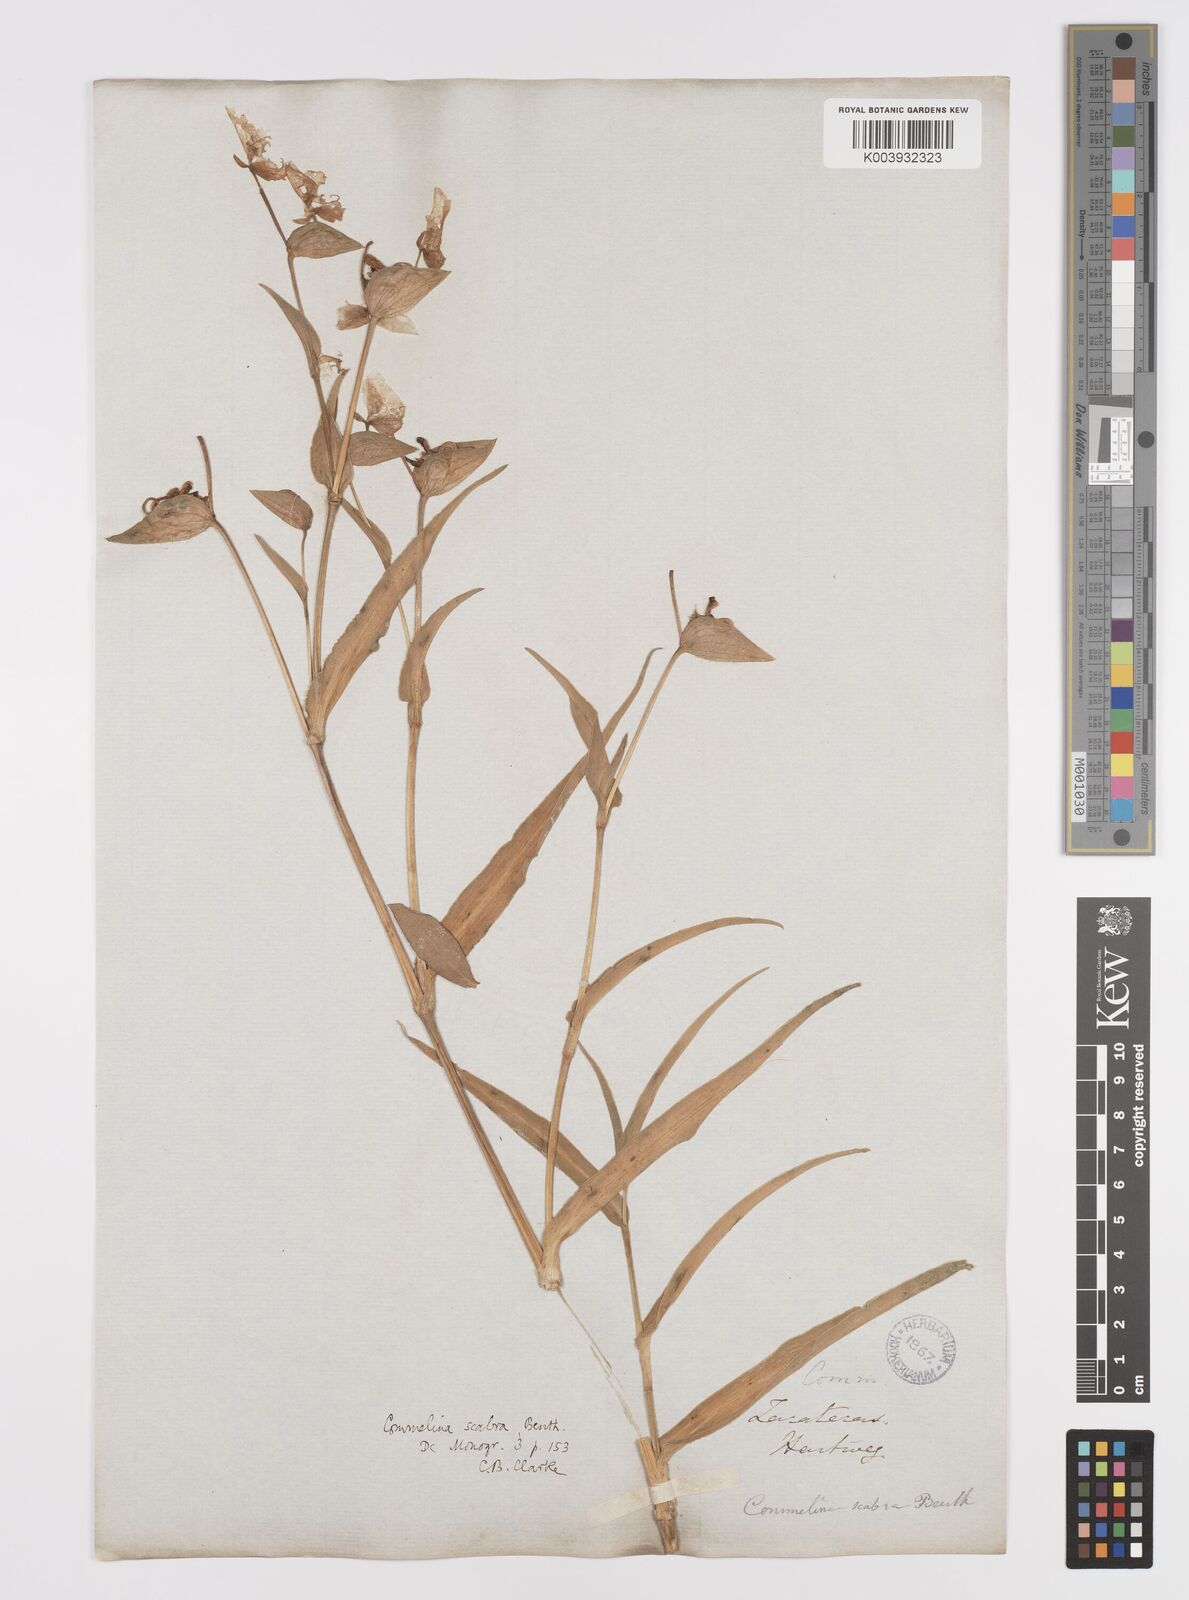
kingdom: Plantae
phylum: Tracheophyta
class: Liliopsida
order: Commelinales
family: Commelinaceae
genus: Commelina
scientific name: Commelina scabra
